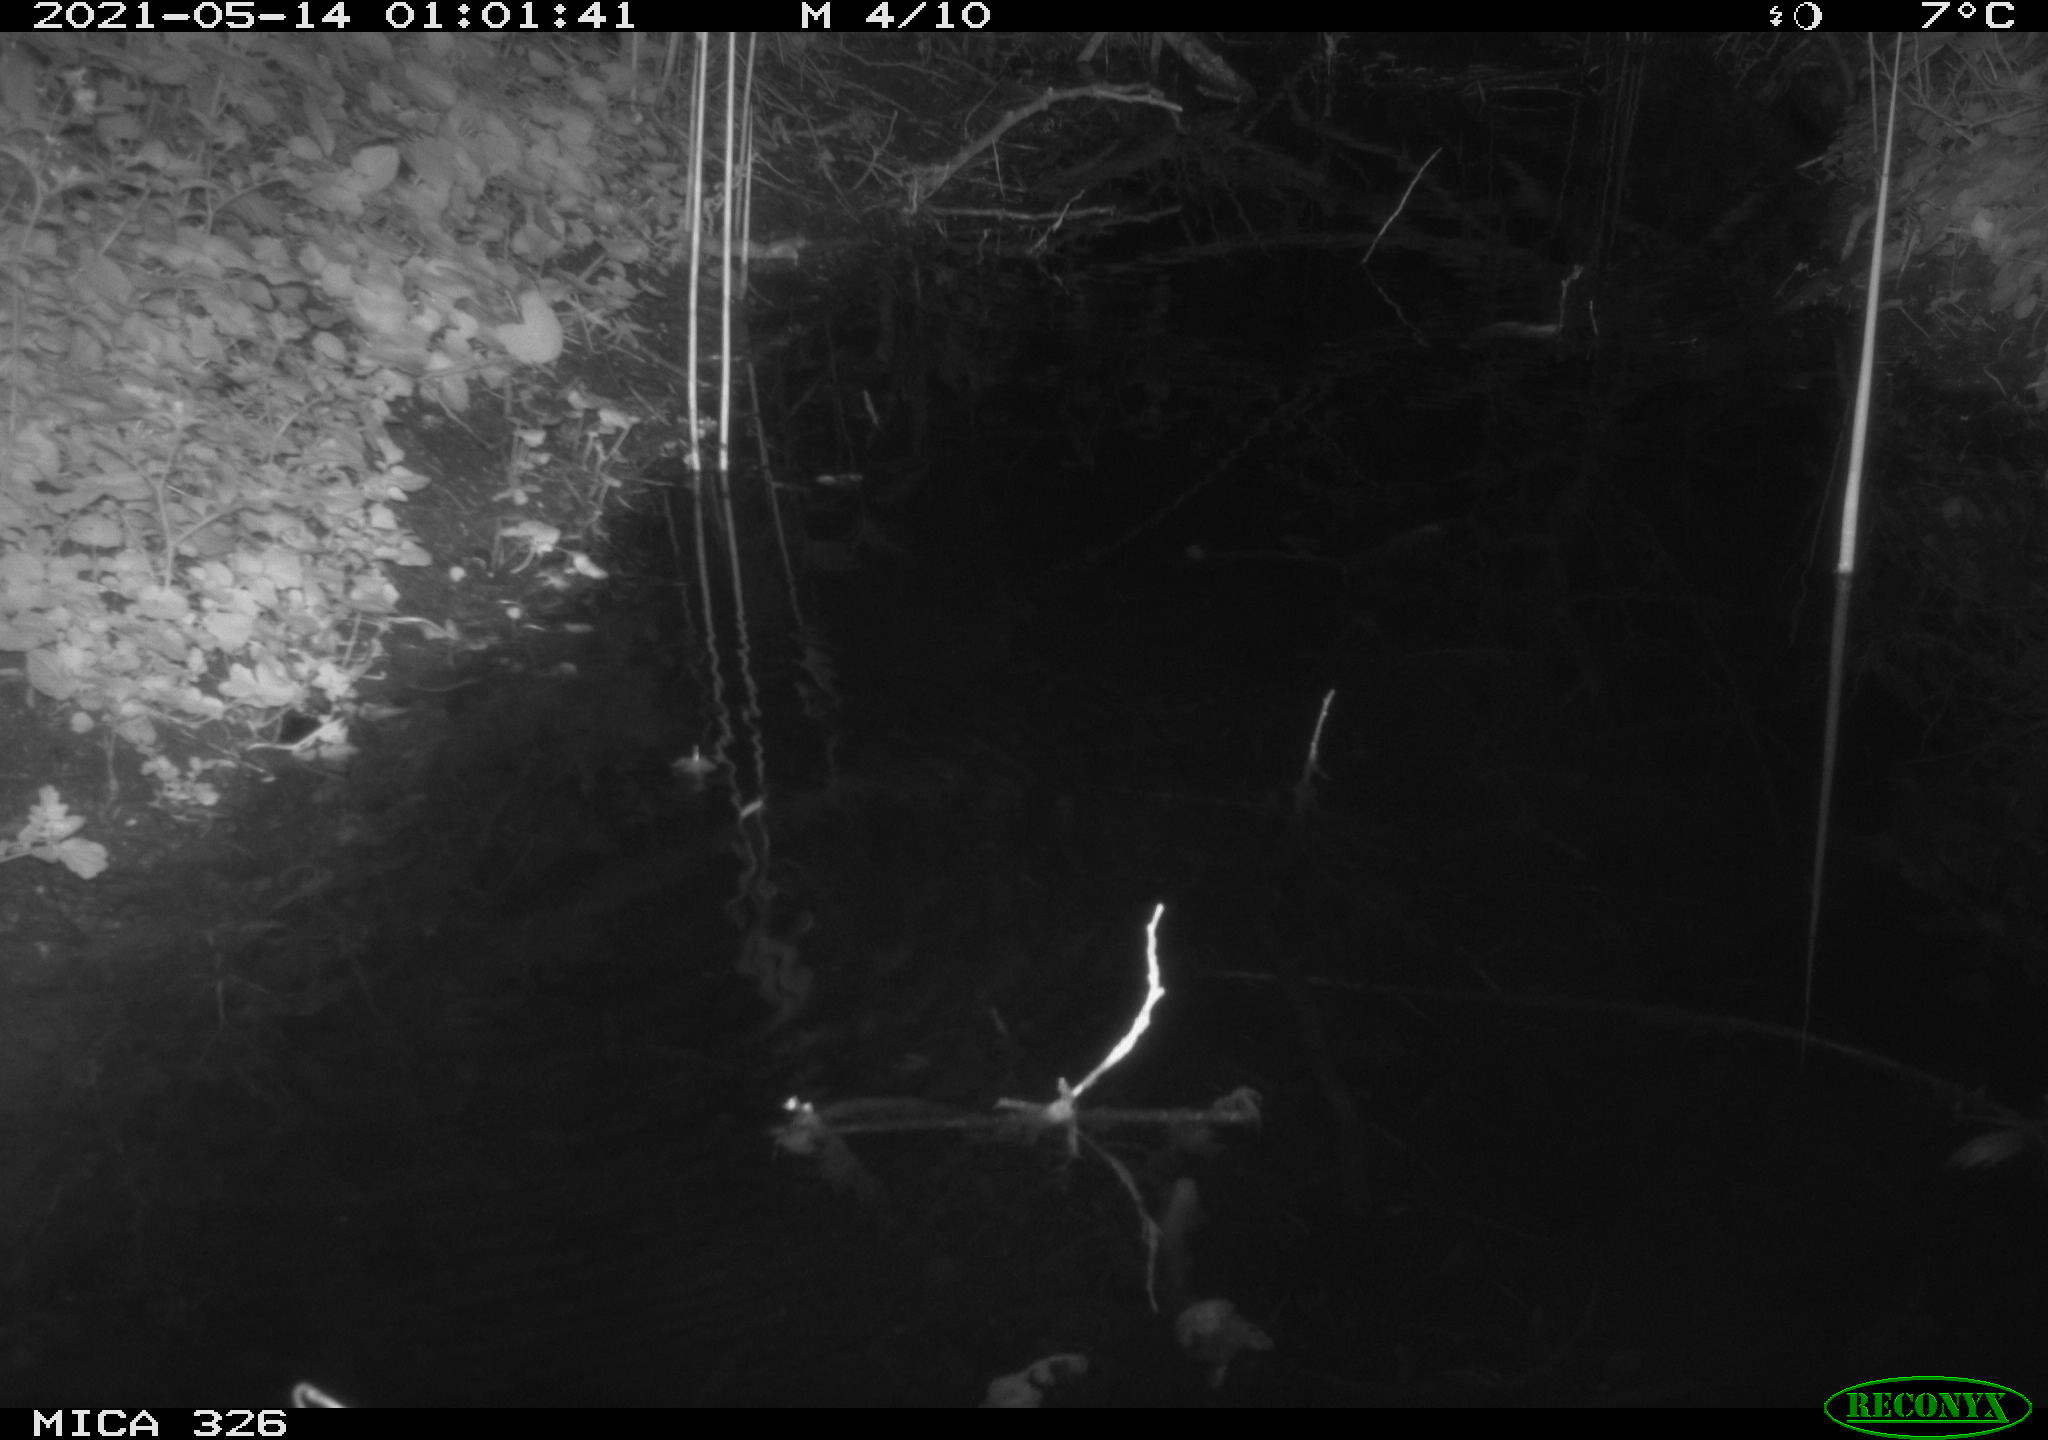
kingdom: Animalia
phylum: Chordata
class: Mammalia
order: Rodentia
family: Muridae
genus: Rattus
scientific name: Rattus norvegicus
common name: Brown rat
